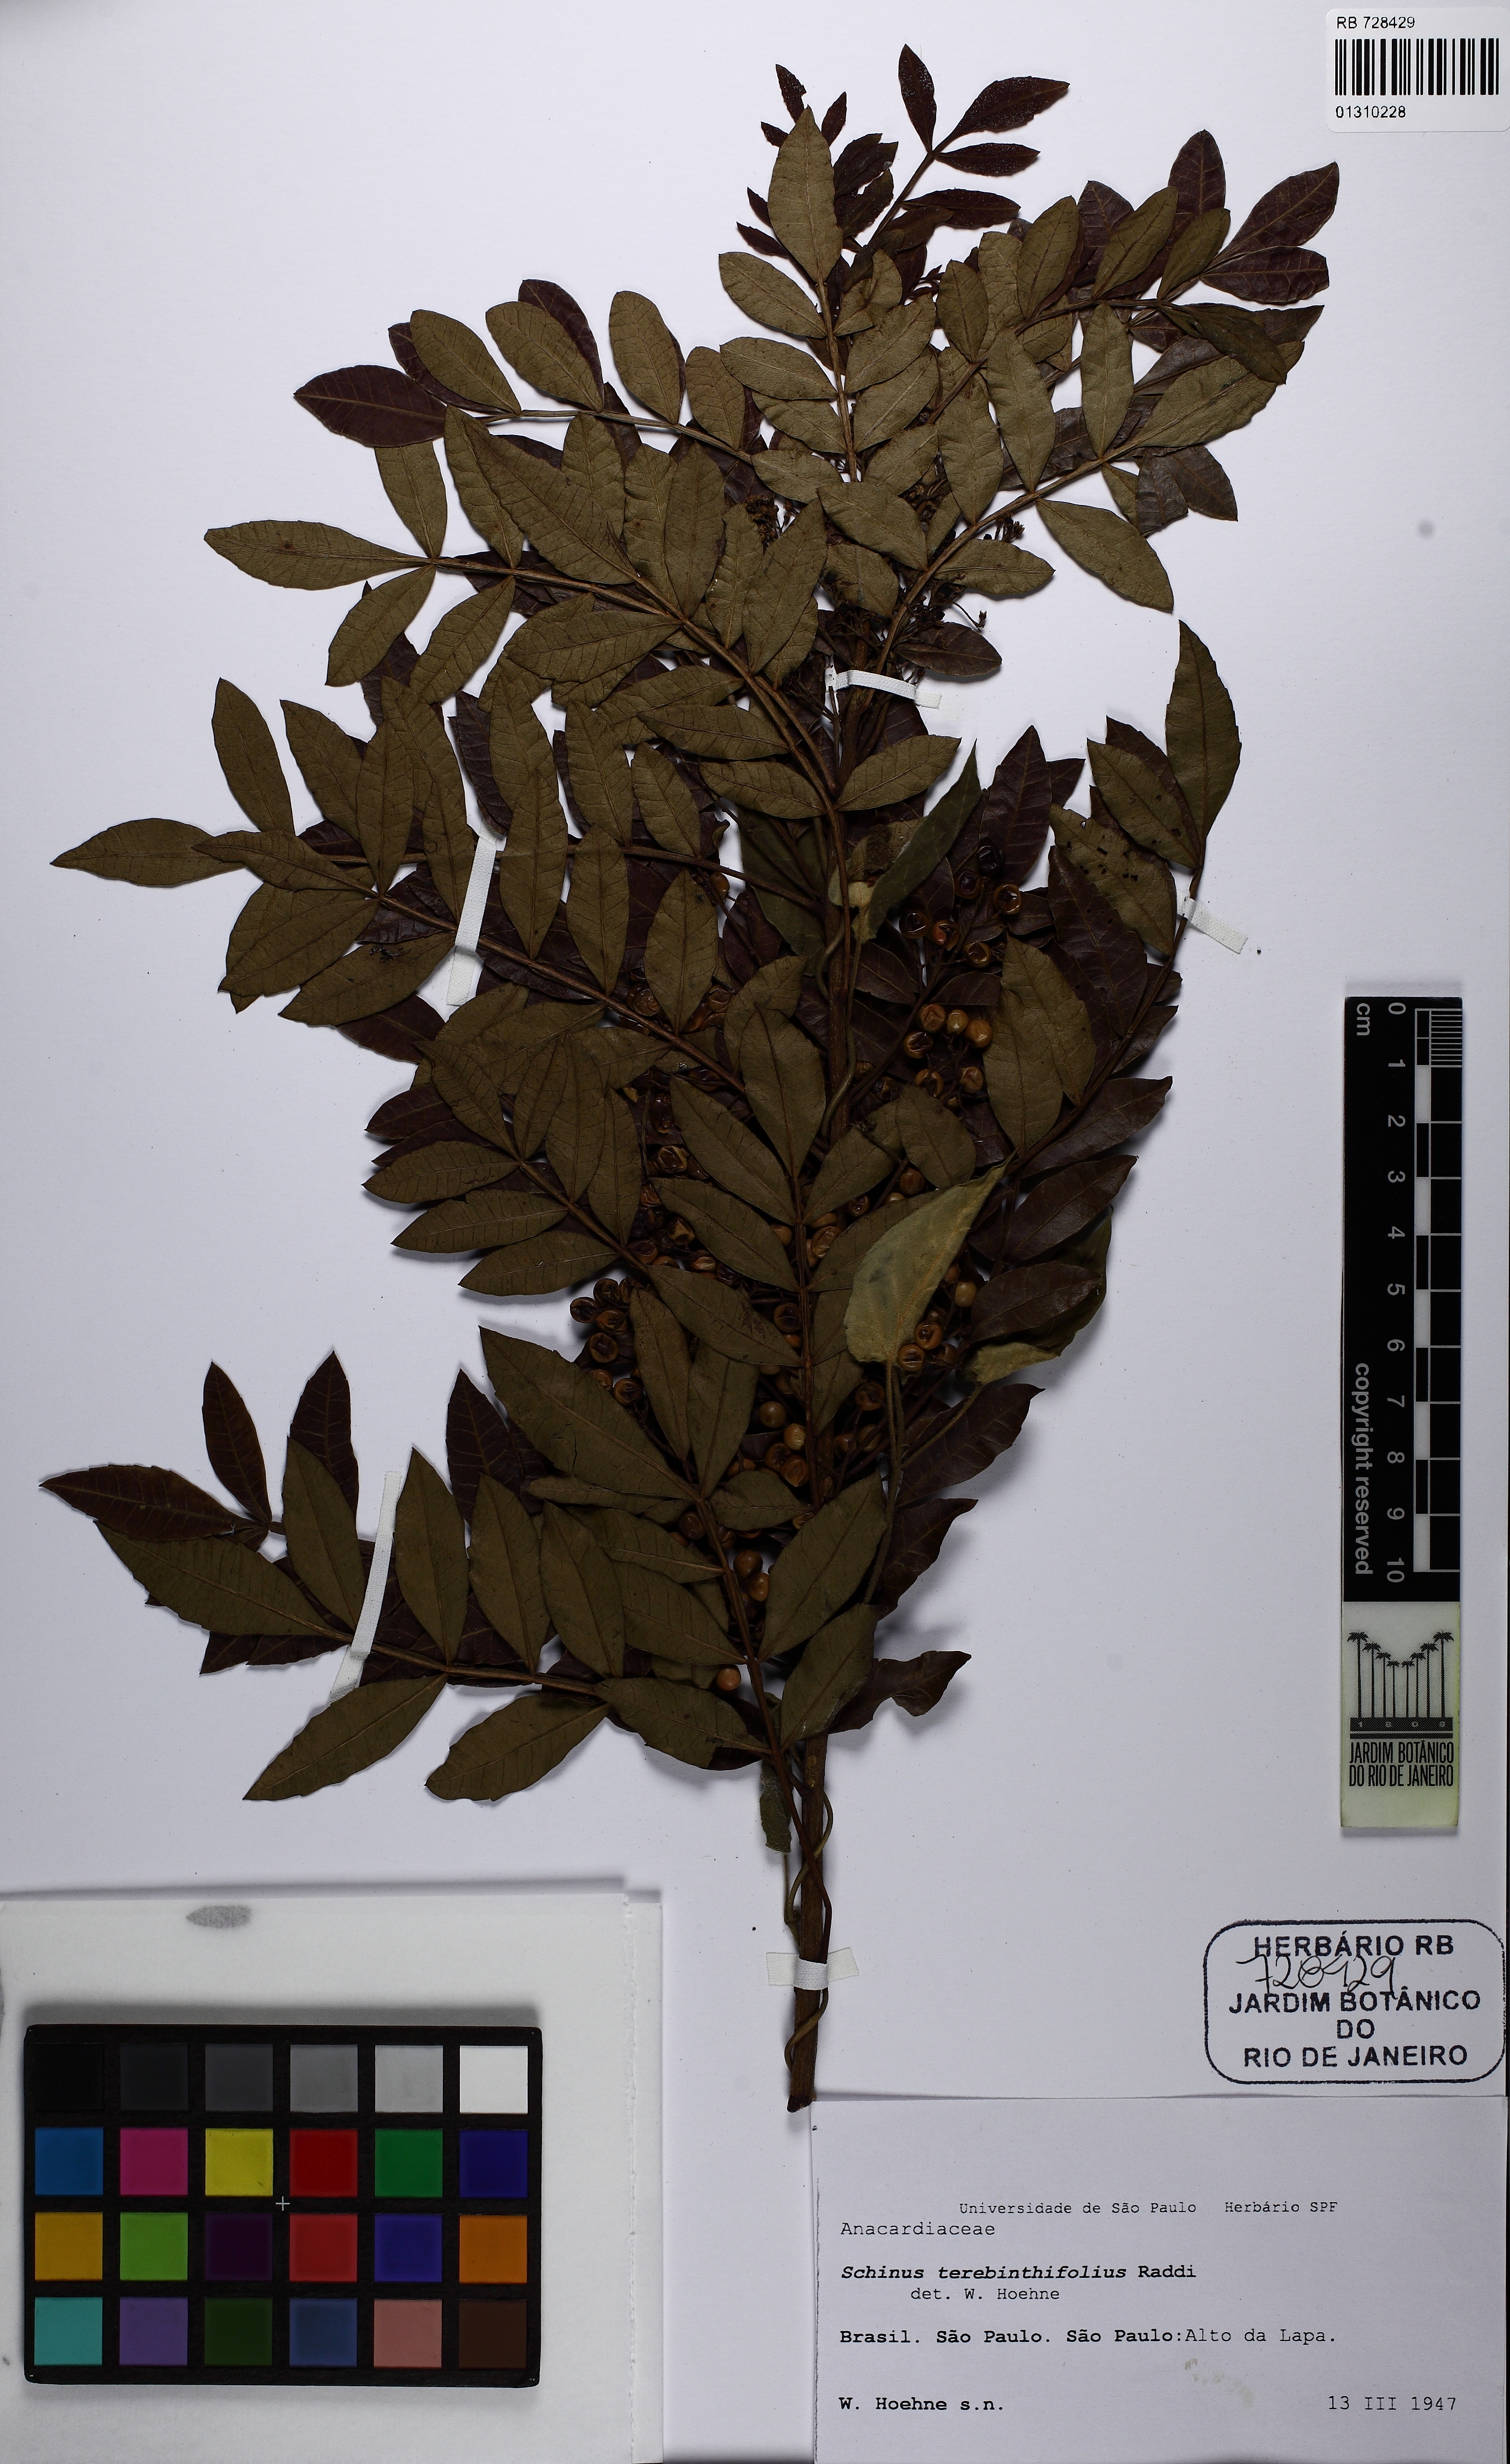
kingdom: Plantae
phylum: Tracheophyta
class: Magnoliopsida
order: Sapindales
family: Anacardiaceae
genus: Schinus
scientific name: Schinus terebinthifolia
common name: Brazilian peppertree
